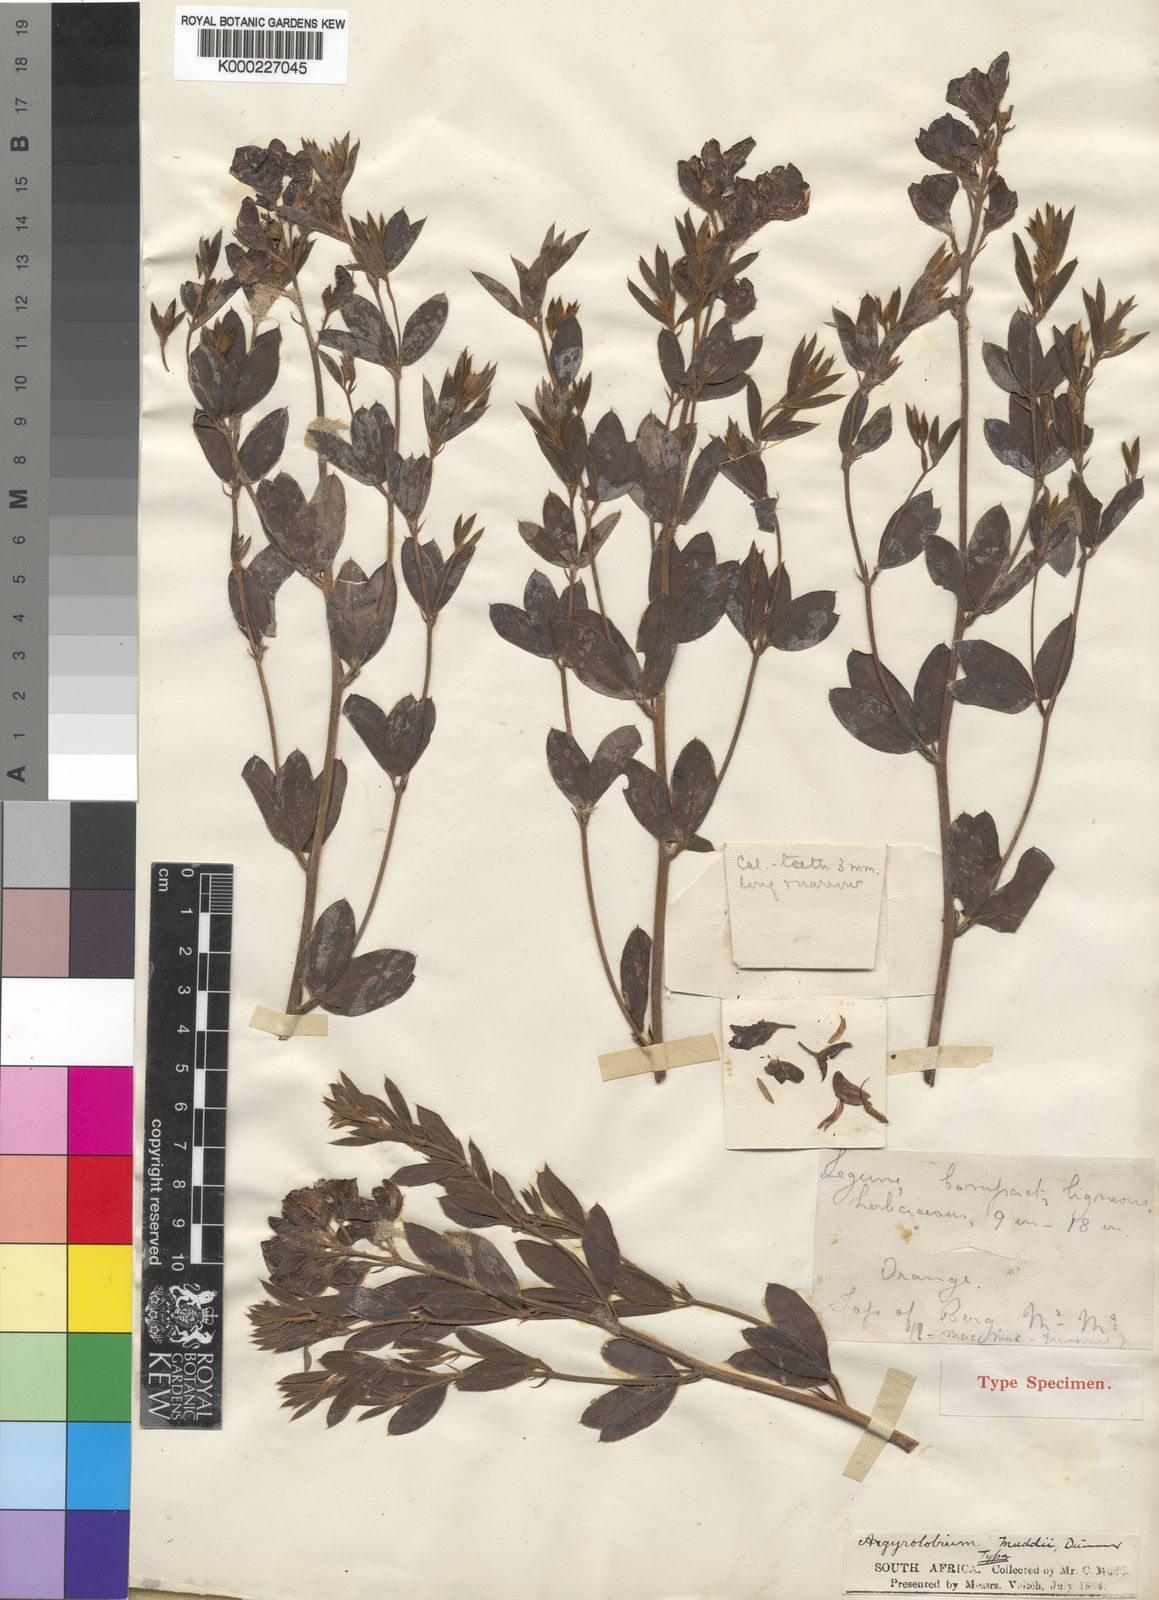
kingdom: Plantae
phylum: Tracheophyta
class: Magnoliopsida
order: Fabales
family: Fabaceae
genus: Argyrolobium
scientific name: Argyrolobium muddii
